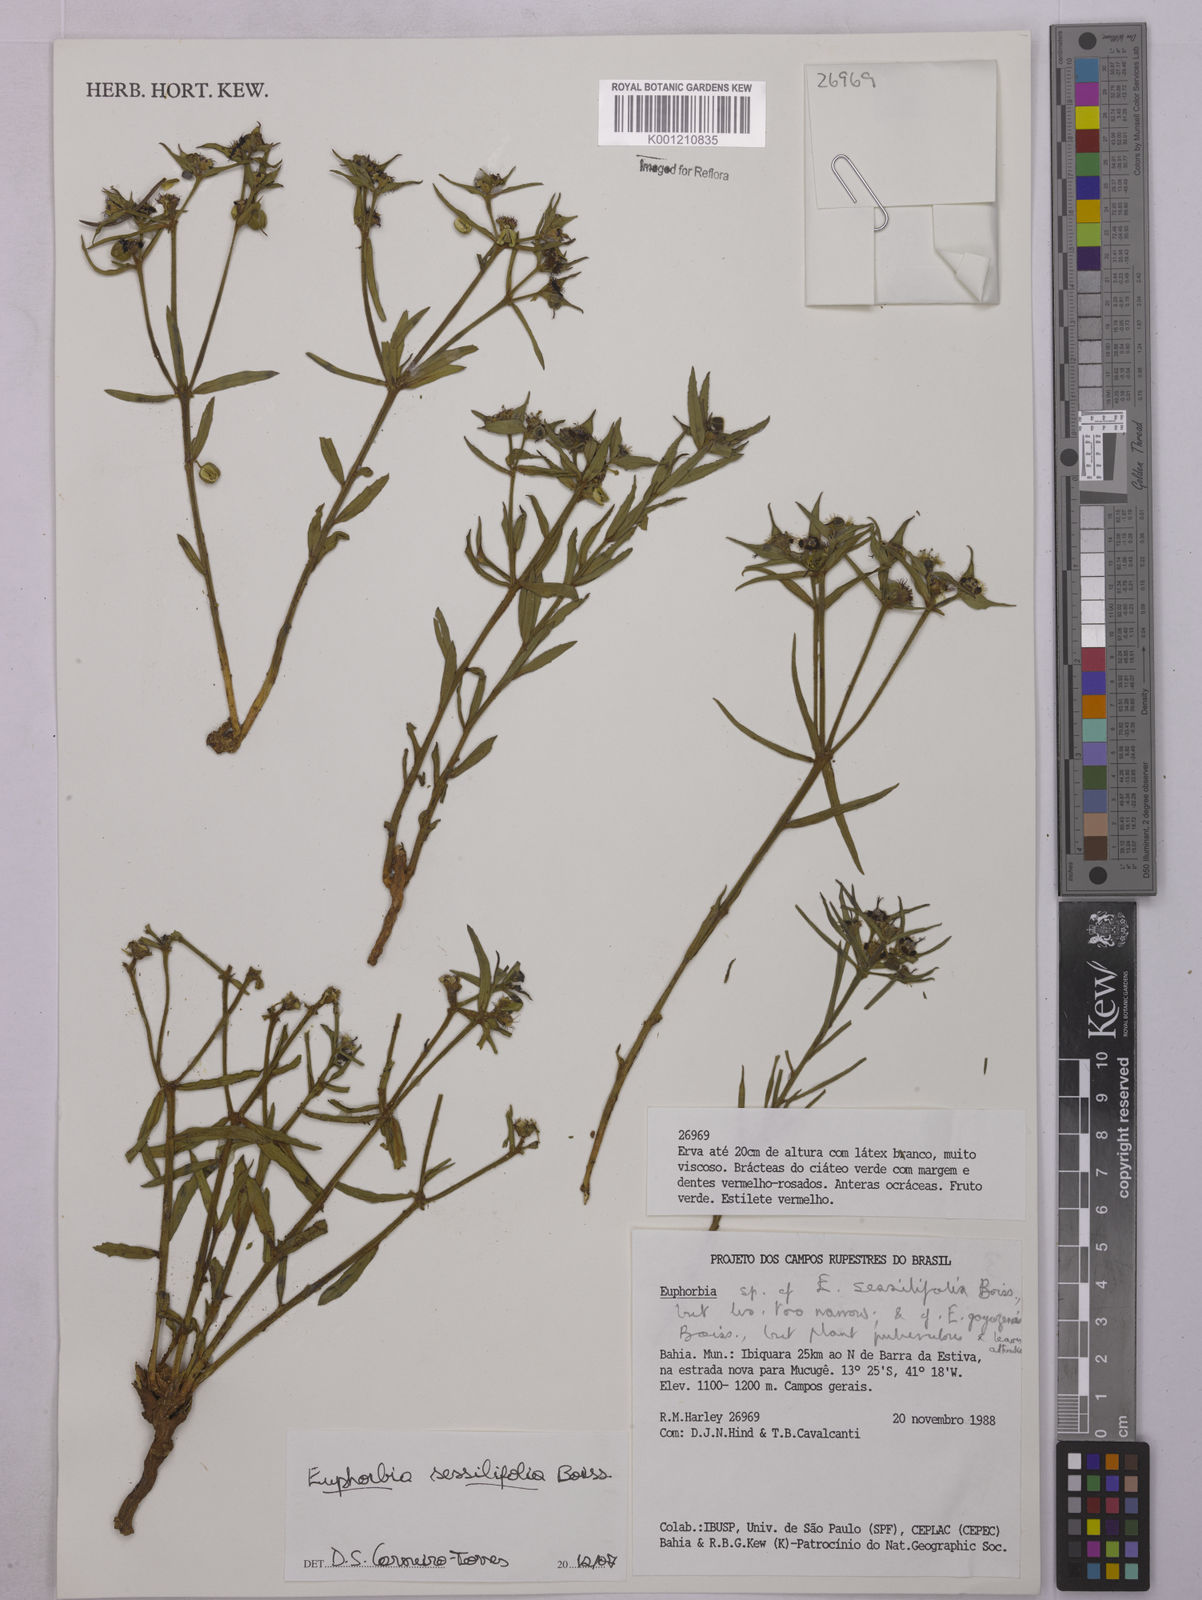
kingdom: Plantae
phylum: Tracheophyta
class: Magnoliopsida
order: Malpighiales
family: Euphorbiaceae
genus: Euphorbia
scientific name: Euphorbia sessilifolia
